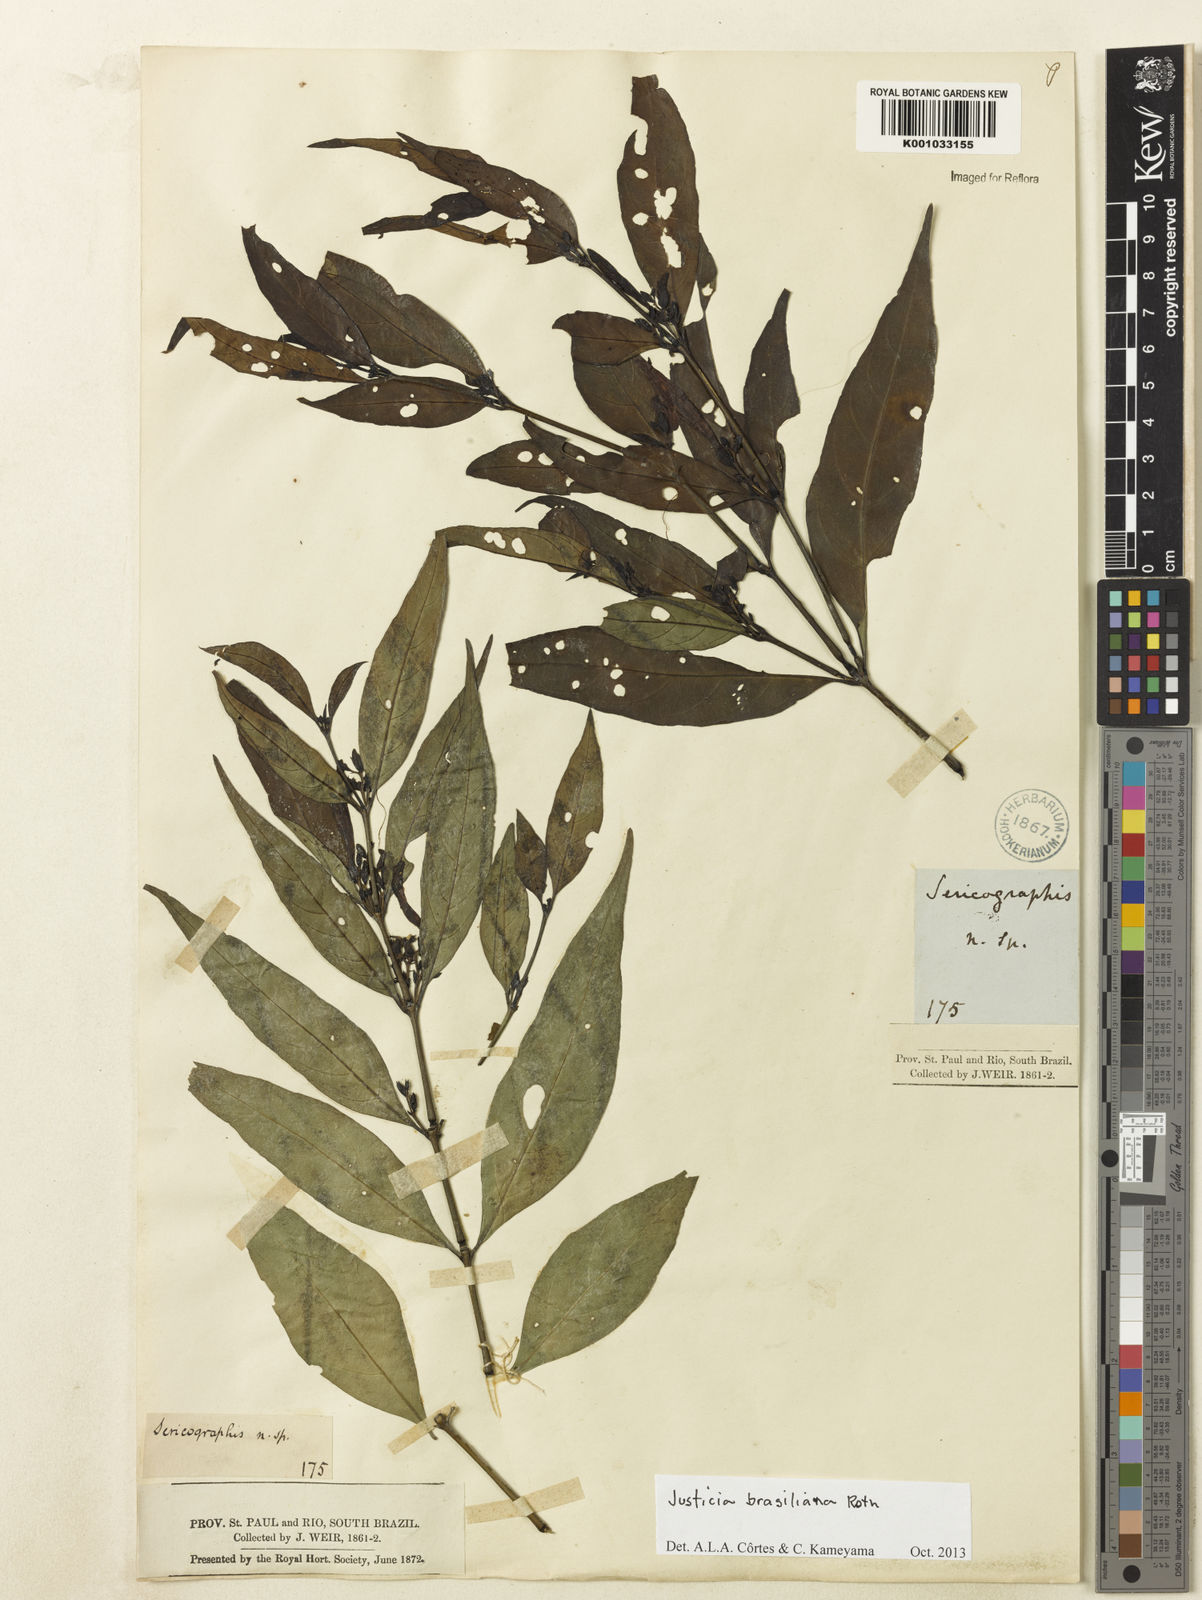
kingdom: Plantae
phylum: Tracheophyta
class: Magnoliopsida
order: Lamiales
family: Acanthaceae
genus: Justicia
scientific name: Justicia brasiliana
